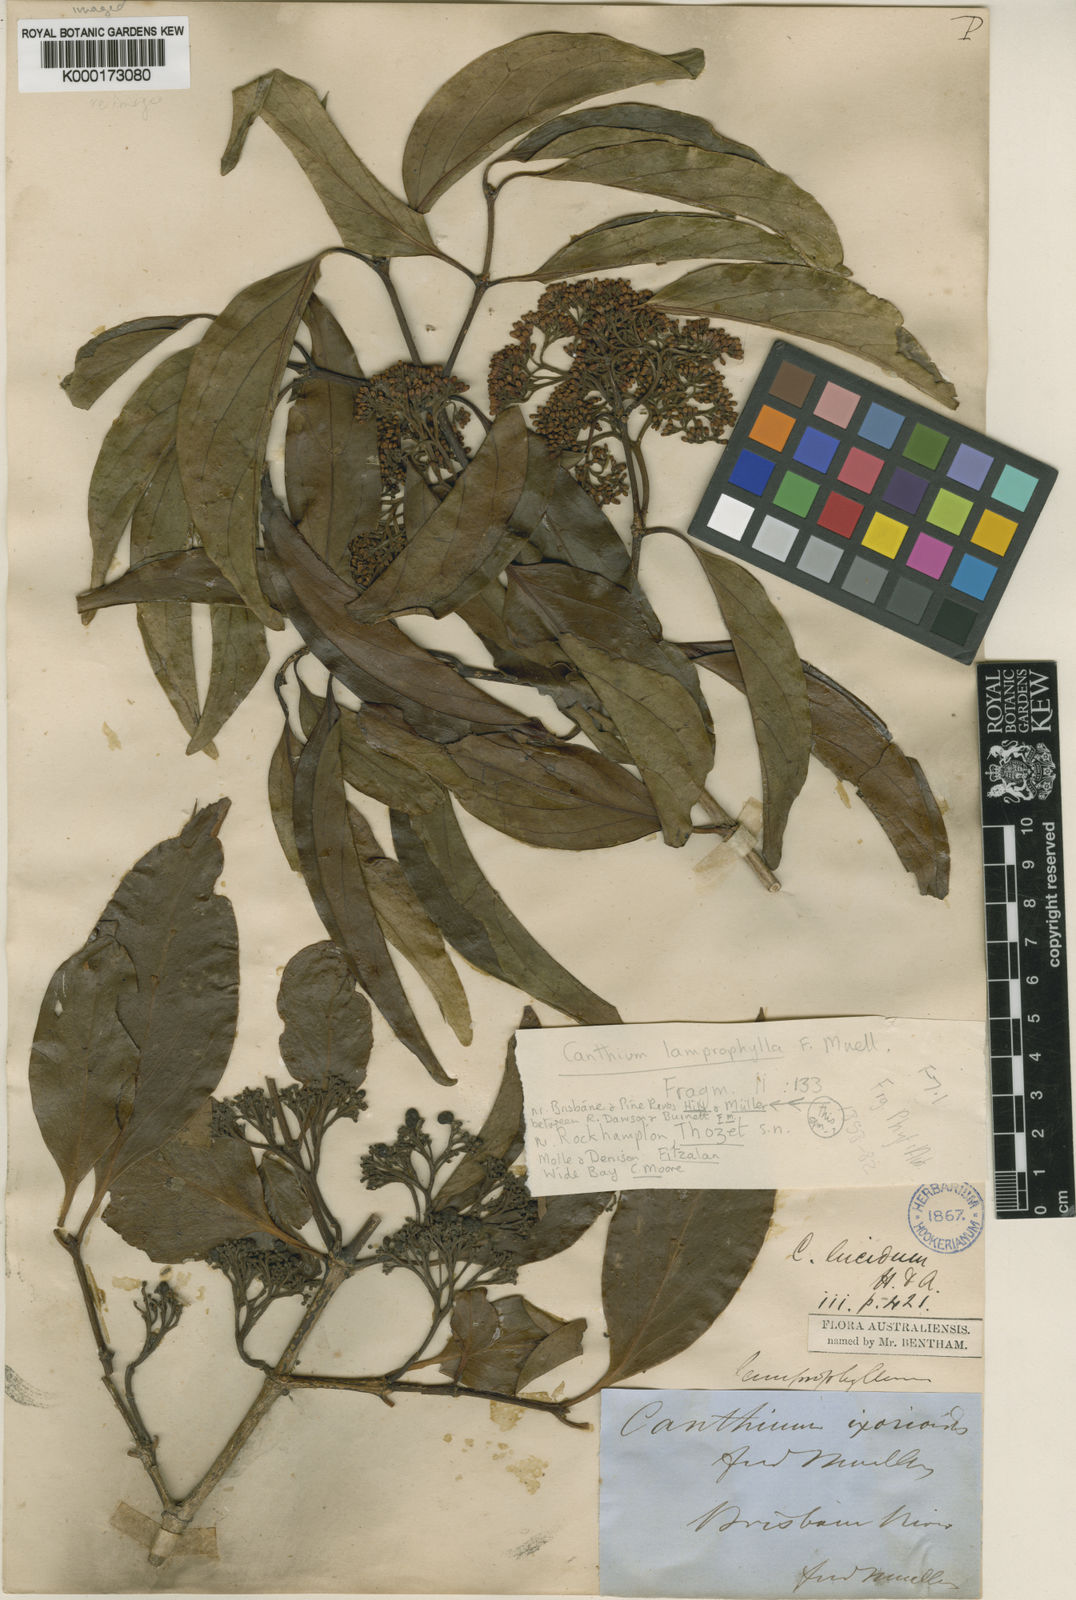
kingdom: Plantae
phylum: Tracheophyta
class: Magnoliopsida
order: Gentianales
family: Rubiaceae
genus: Psydrax
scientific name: Psydrax lamprophyllus
